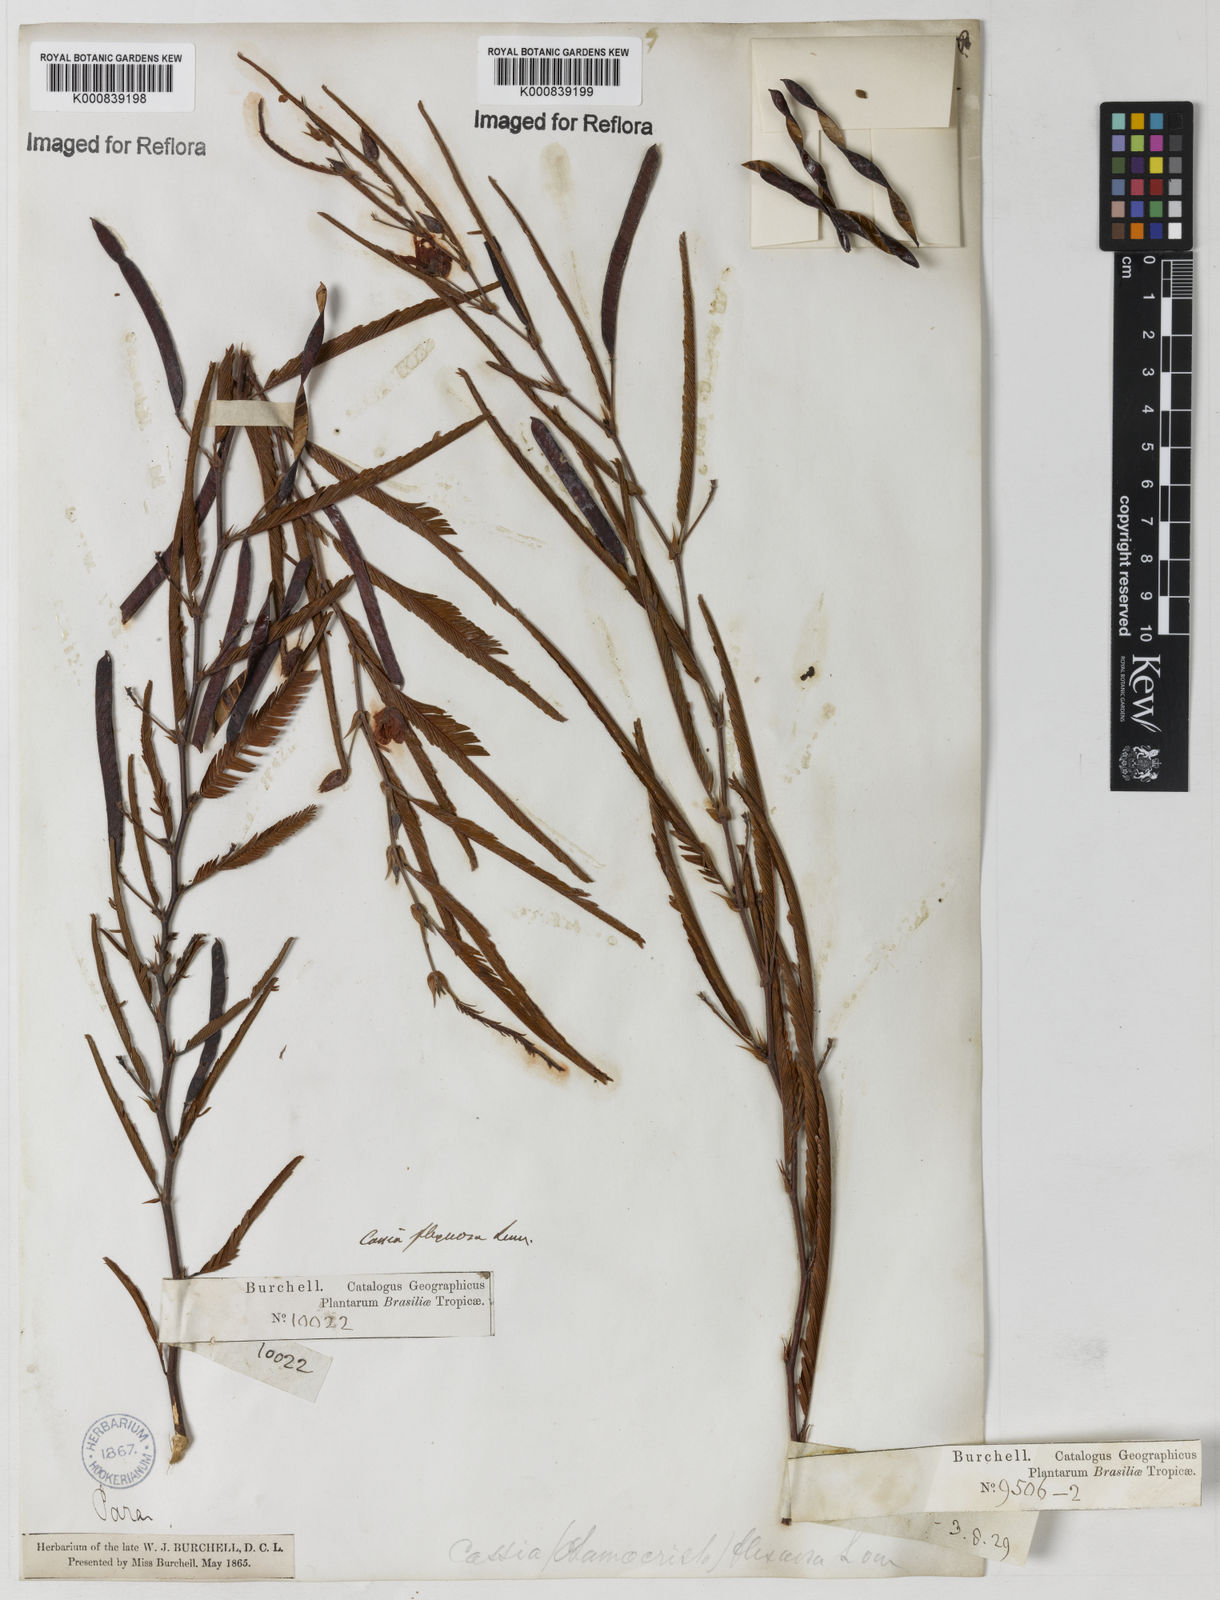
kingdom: Plantae
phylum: Tracheophyta
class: Magnoliopsida
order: Fabales
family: Fabaceae
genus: Chamaecrista
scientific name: Chamaecrista flexuosa
